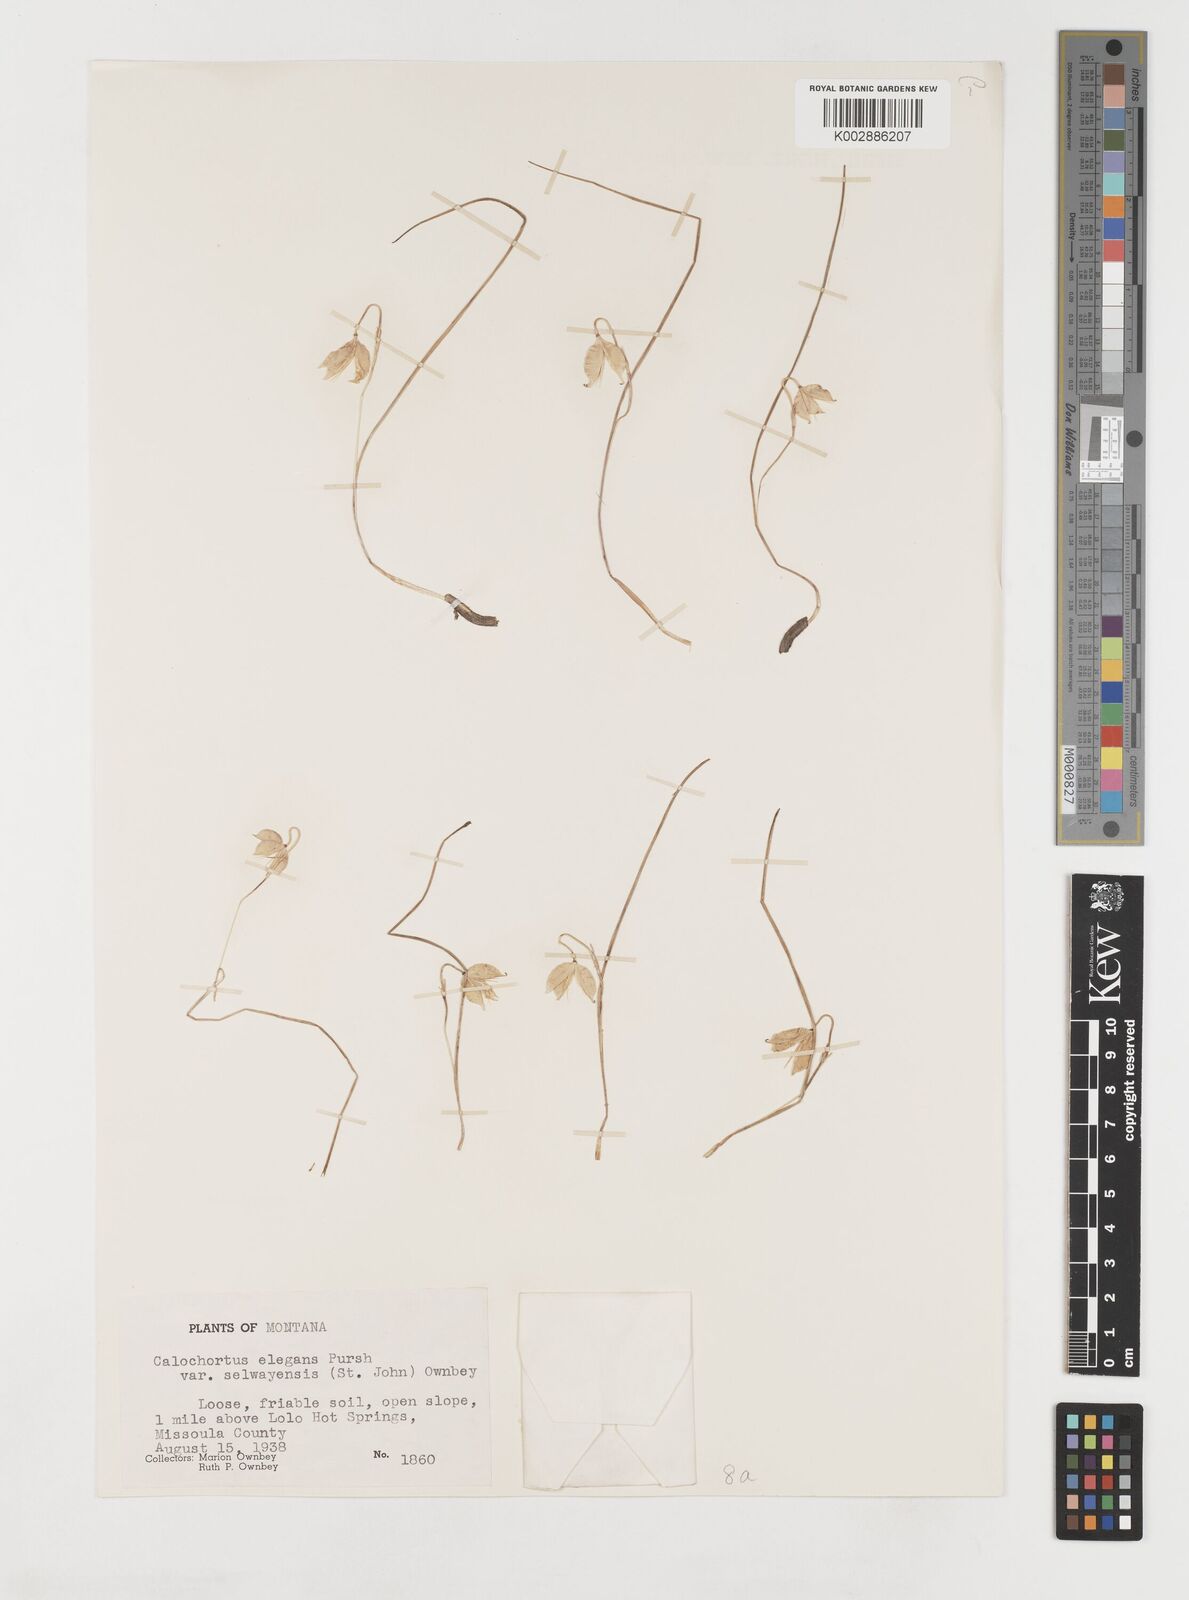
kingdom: Plantae
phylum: Tracheophyta
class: Liliopsida
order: Liliales
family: Liliaceae
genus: Calochortus
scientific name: Calochortus elegans
